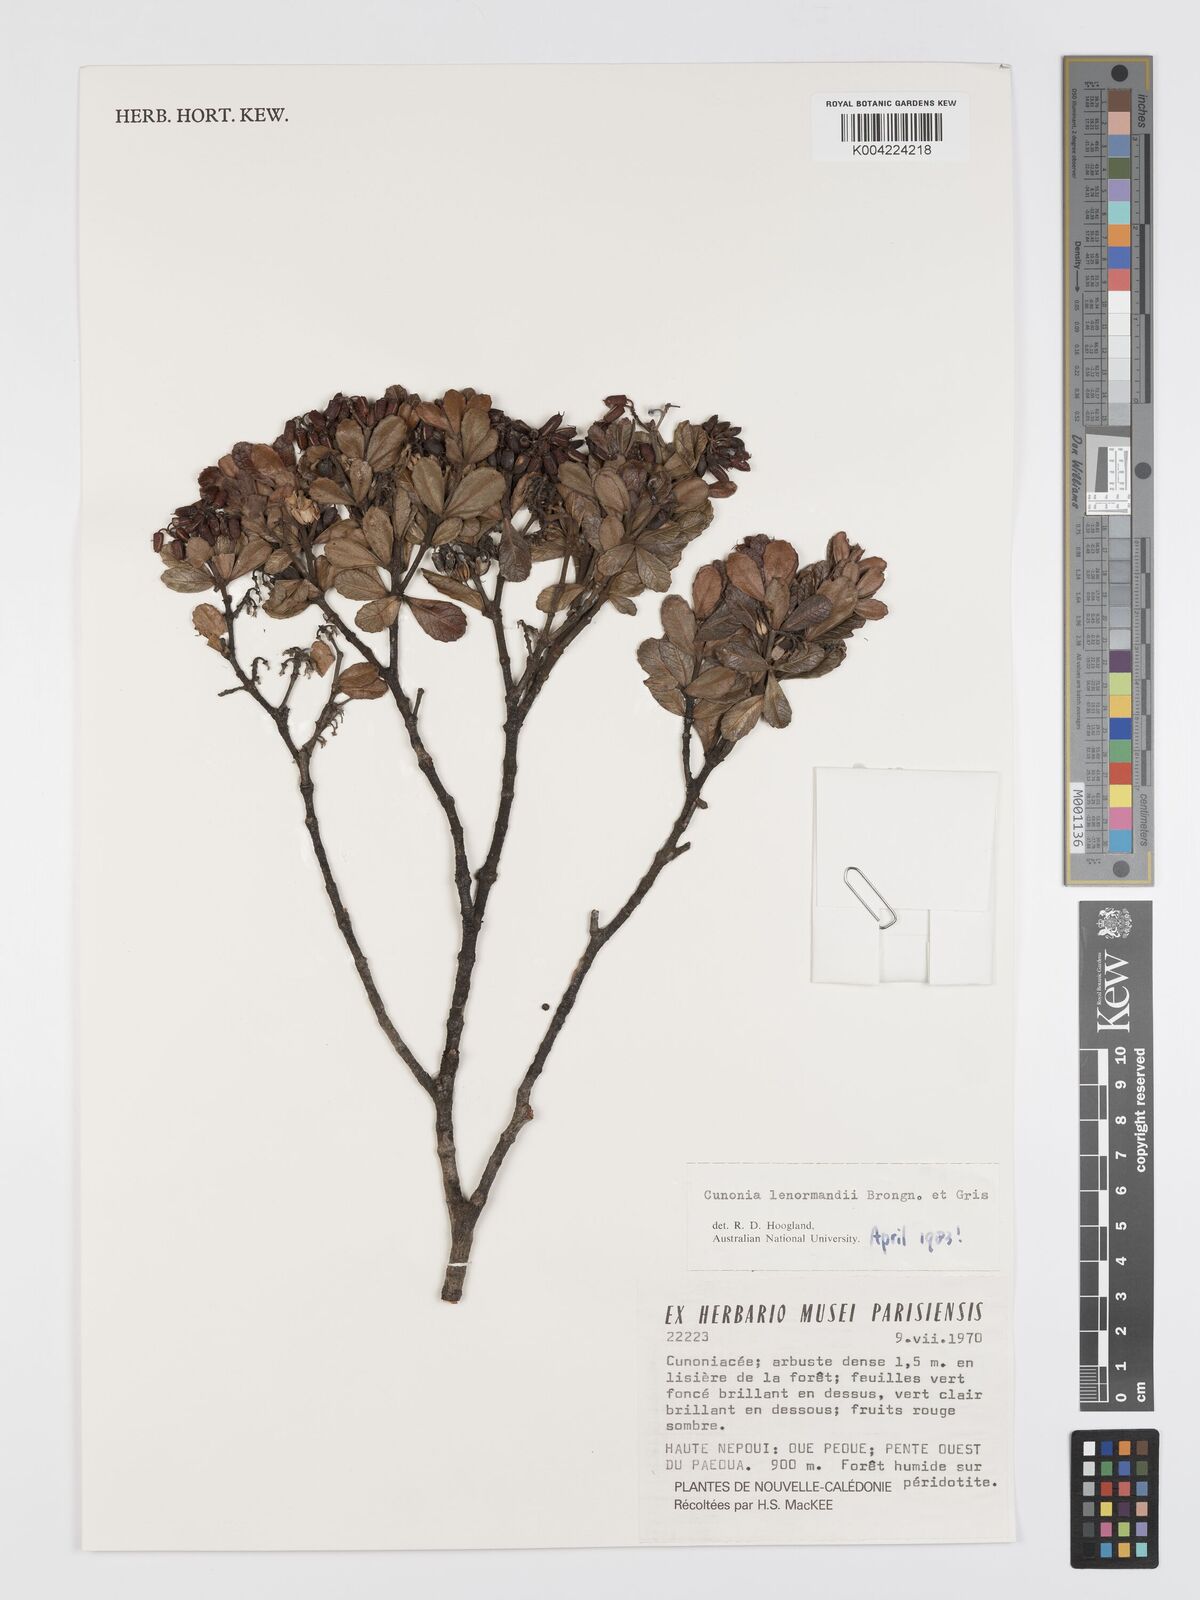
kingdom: Plantae
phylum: Tracheophyta
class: Magnoliopsida
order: Oxalidales
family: Cunoniaceae
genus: Cunonia
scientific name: Cunonia lenormandii
